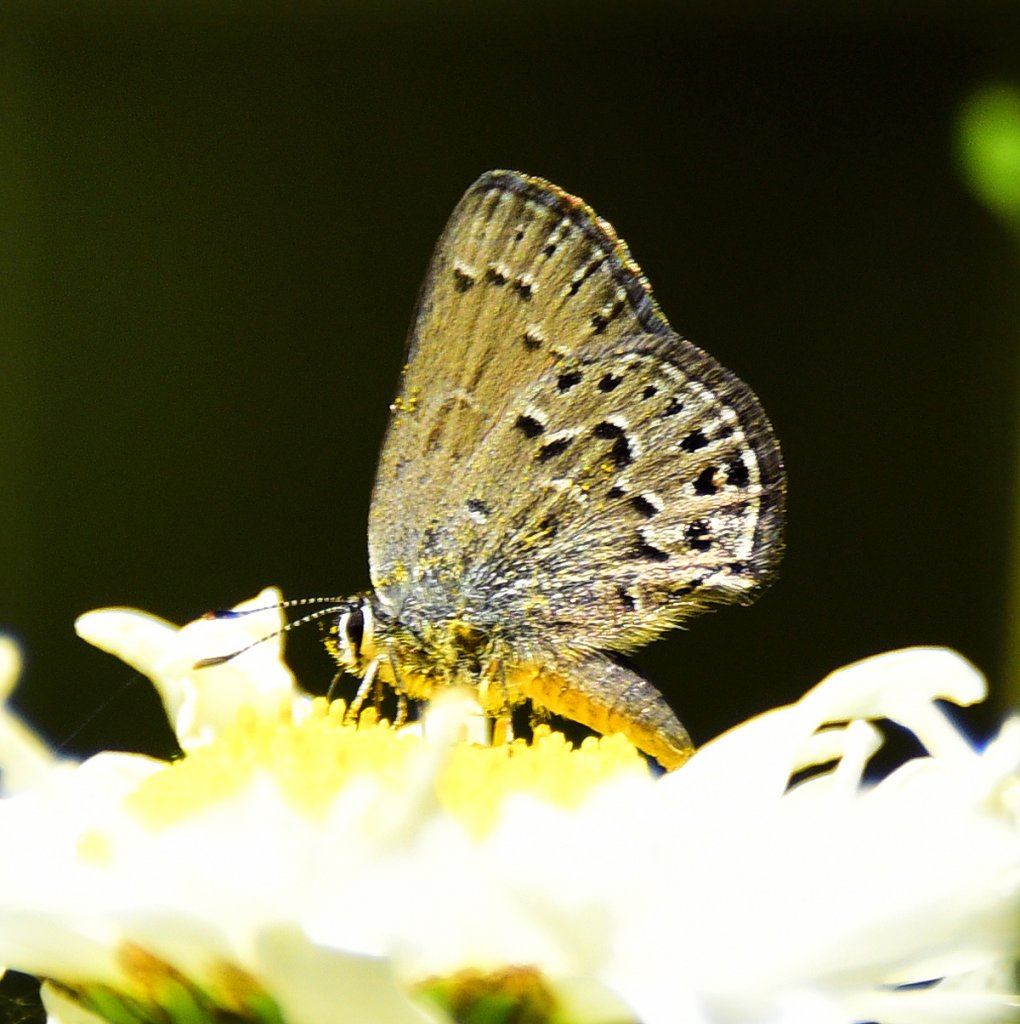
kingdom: Animalia
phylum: Arthropoda
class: Insecta
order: Lepidoptera
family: Lycaenidae
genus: Satyrium
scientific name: Satyrium behrii
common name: Behr's Hairstreak
